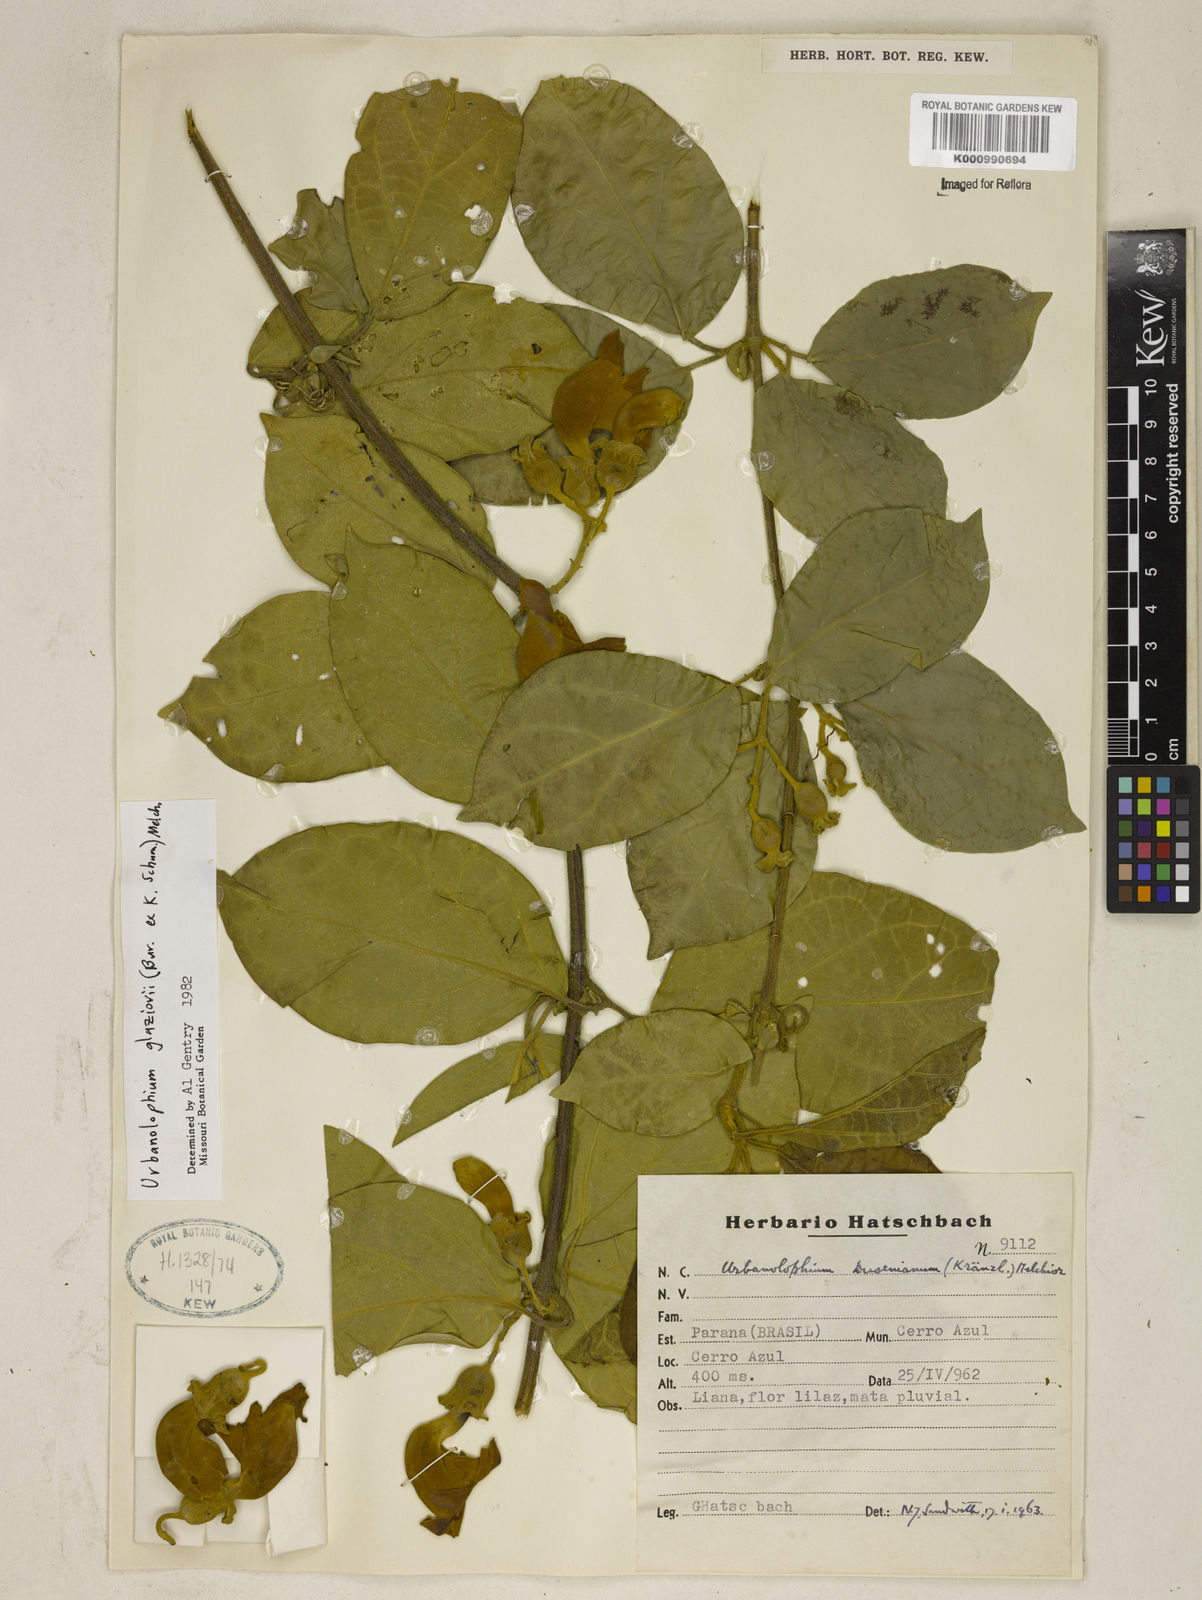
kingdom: Plantae
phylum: Tracheophyta
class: Magnoliopsida
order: Lamiales
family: Bignoniaceae
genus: Amphilophium
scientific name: Amphilophium dusenianum
